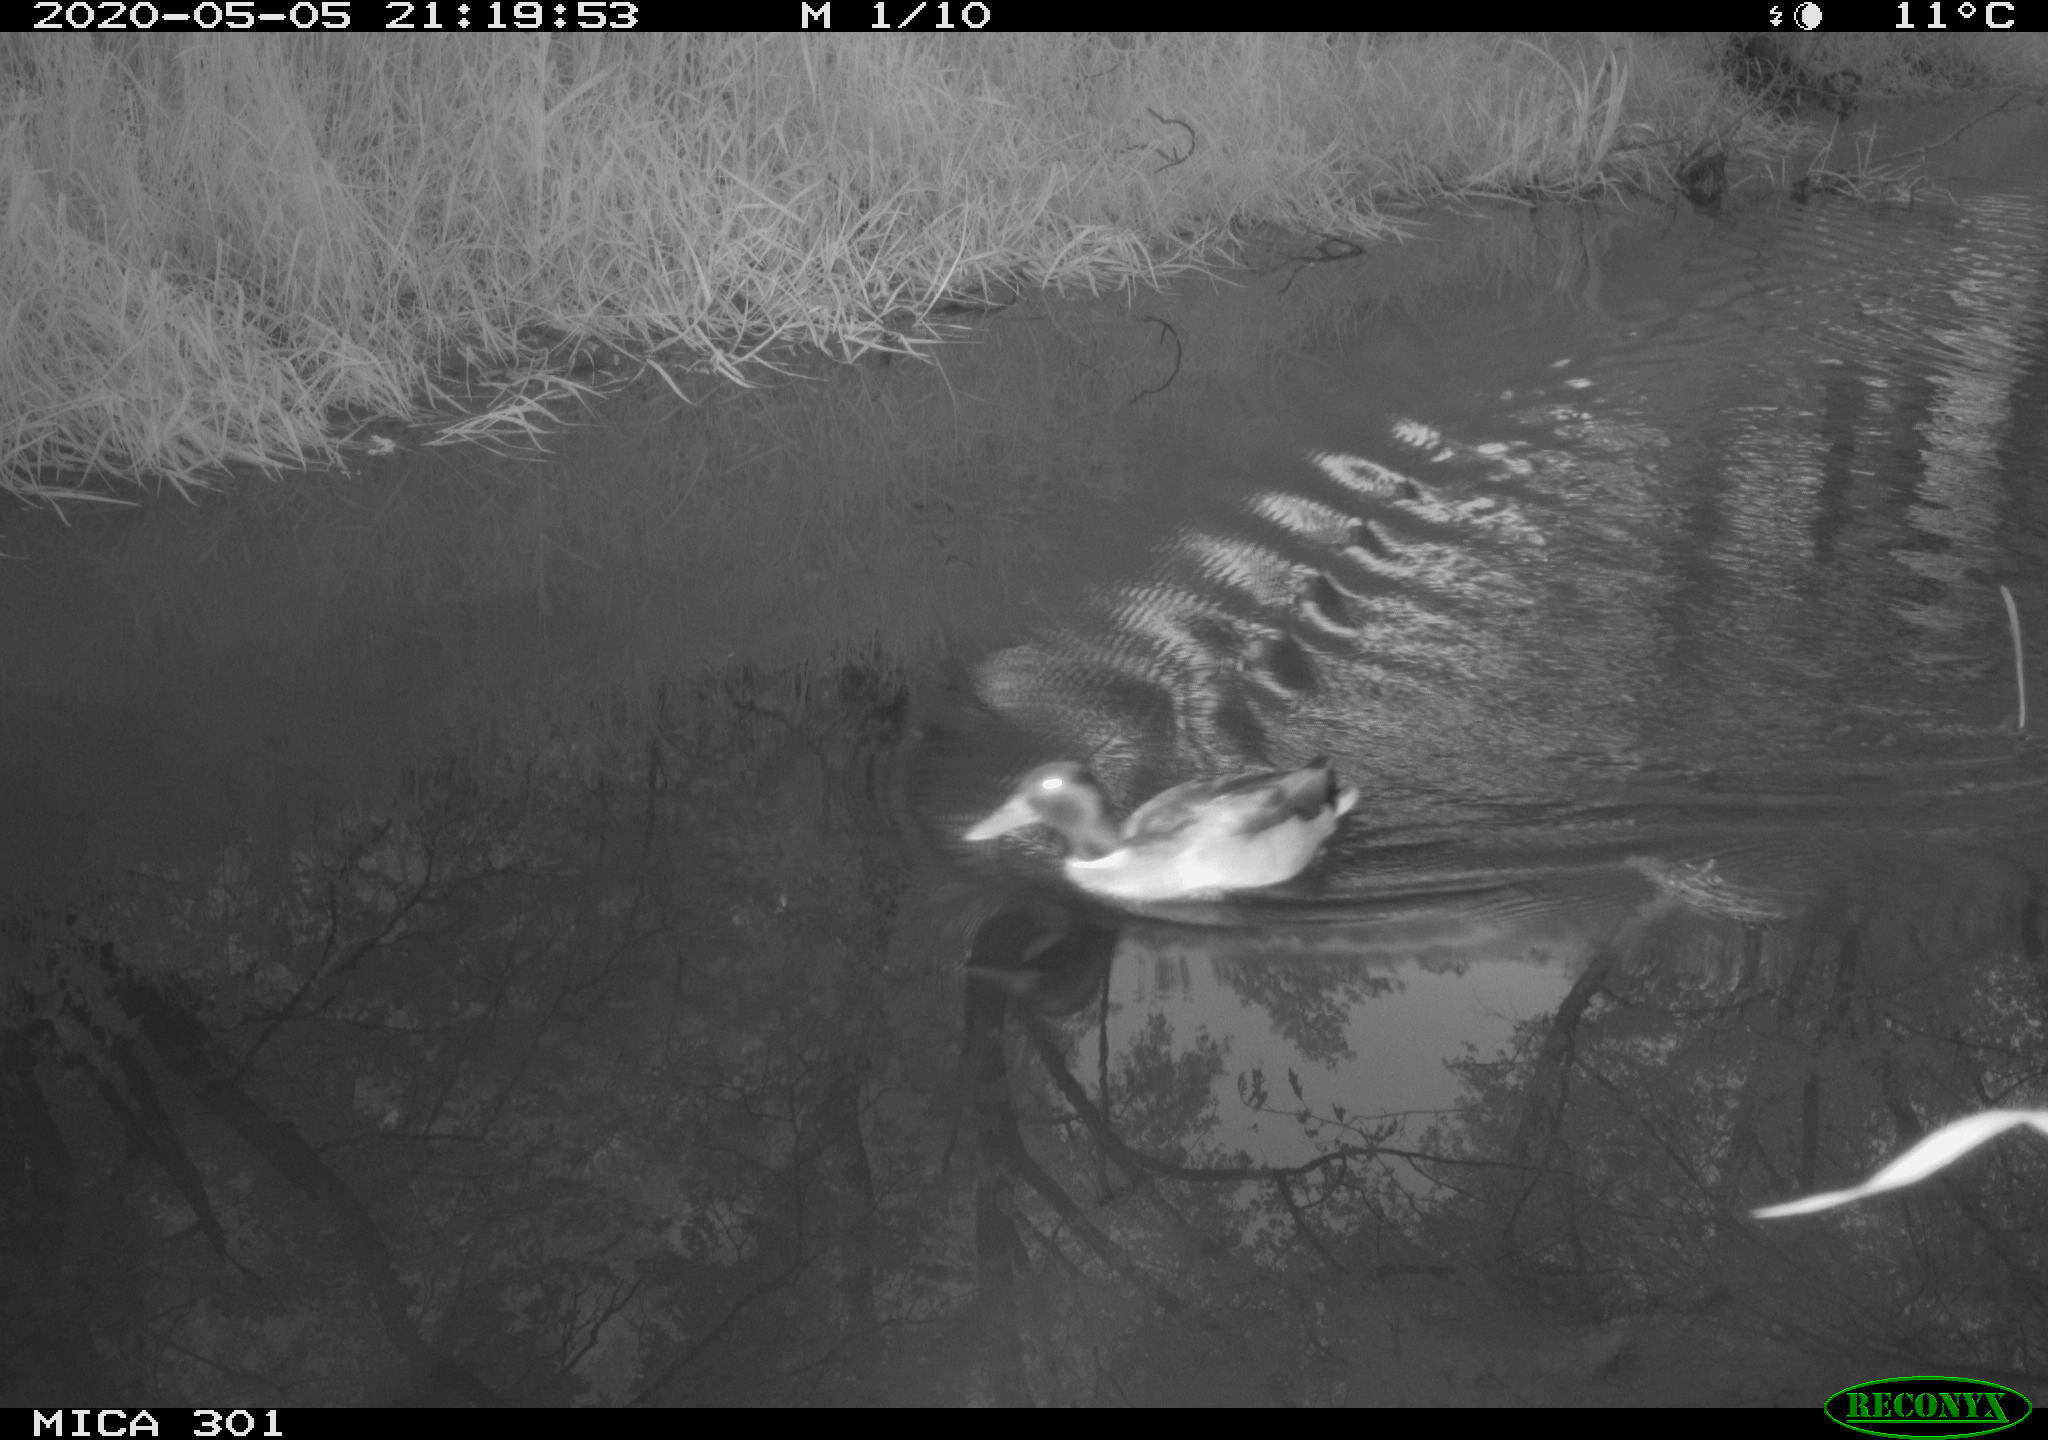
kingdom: Animalia
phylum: Chordata
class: Aves
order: Anseriformes
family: Anatidae
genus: Anas
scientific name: Anas platyrhynchos
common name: Mallard
